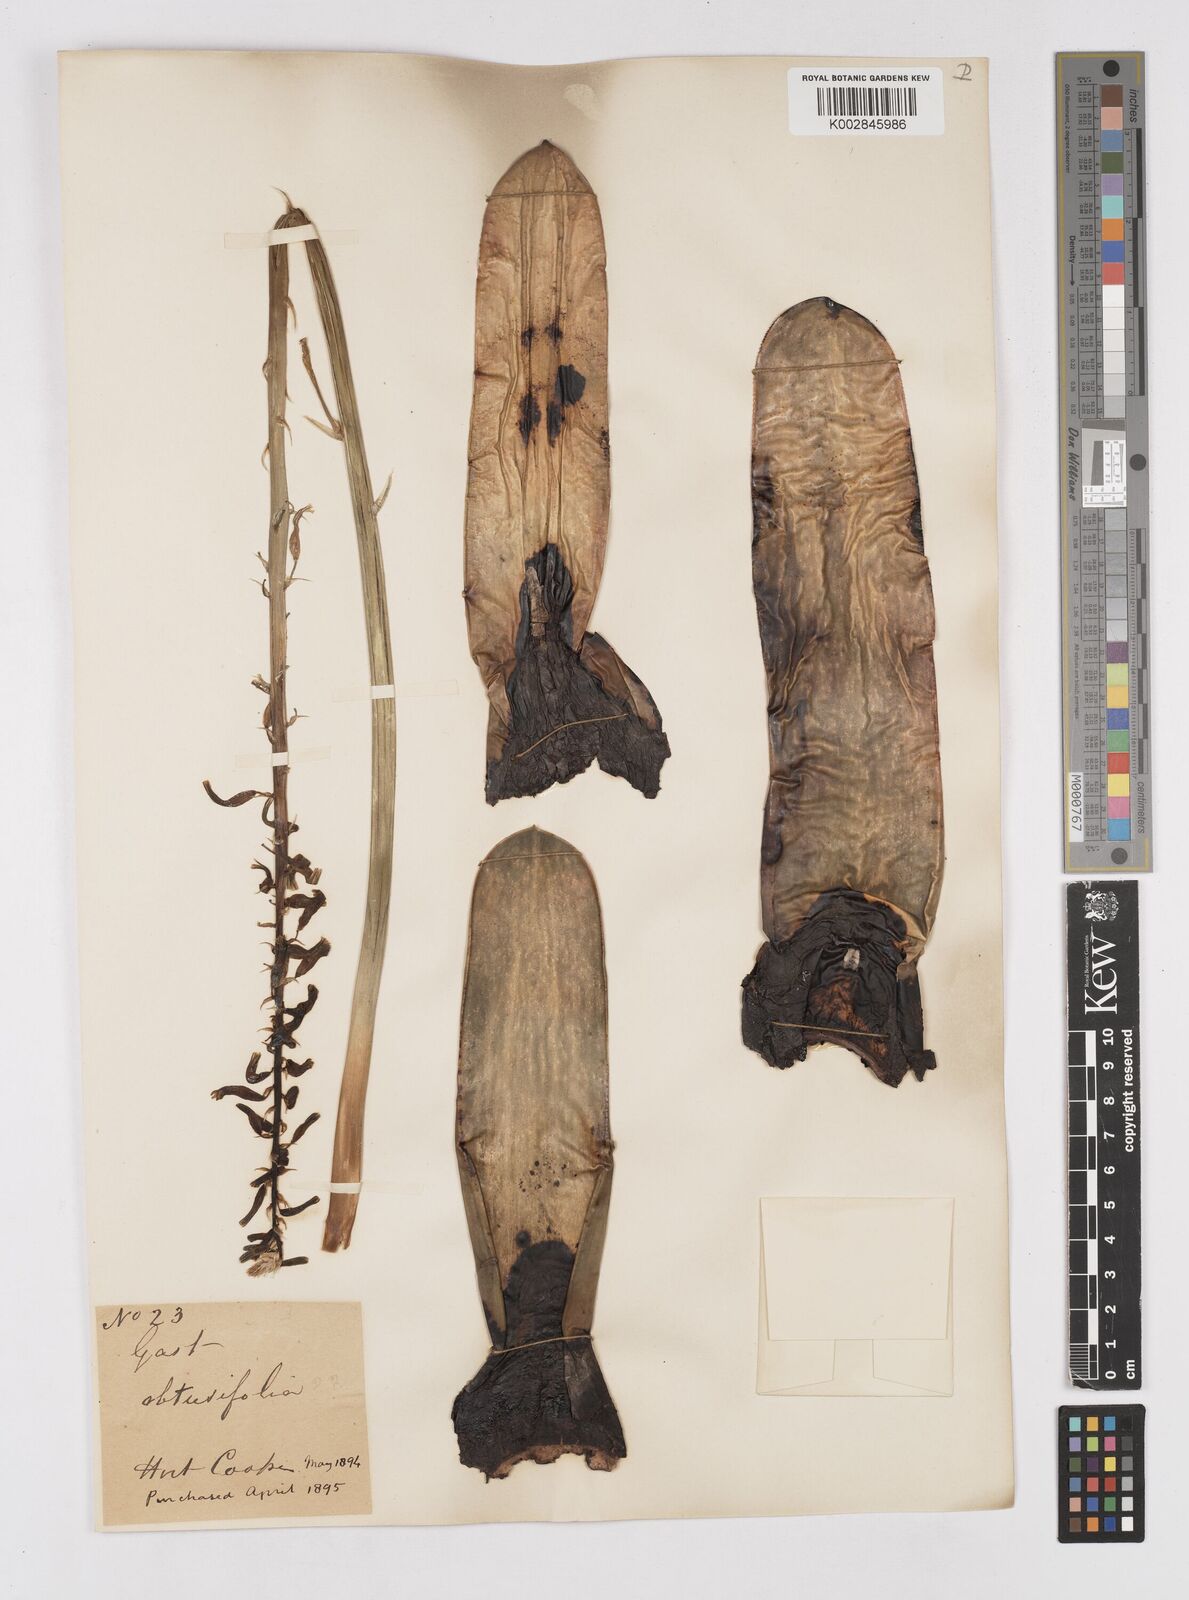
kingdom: Plantae
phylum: Tracheophyta
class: Liliopsida
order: Asparagales
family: Asphodelaceae
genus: Gasteria
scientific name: Gasteria disticha
